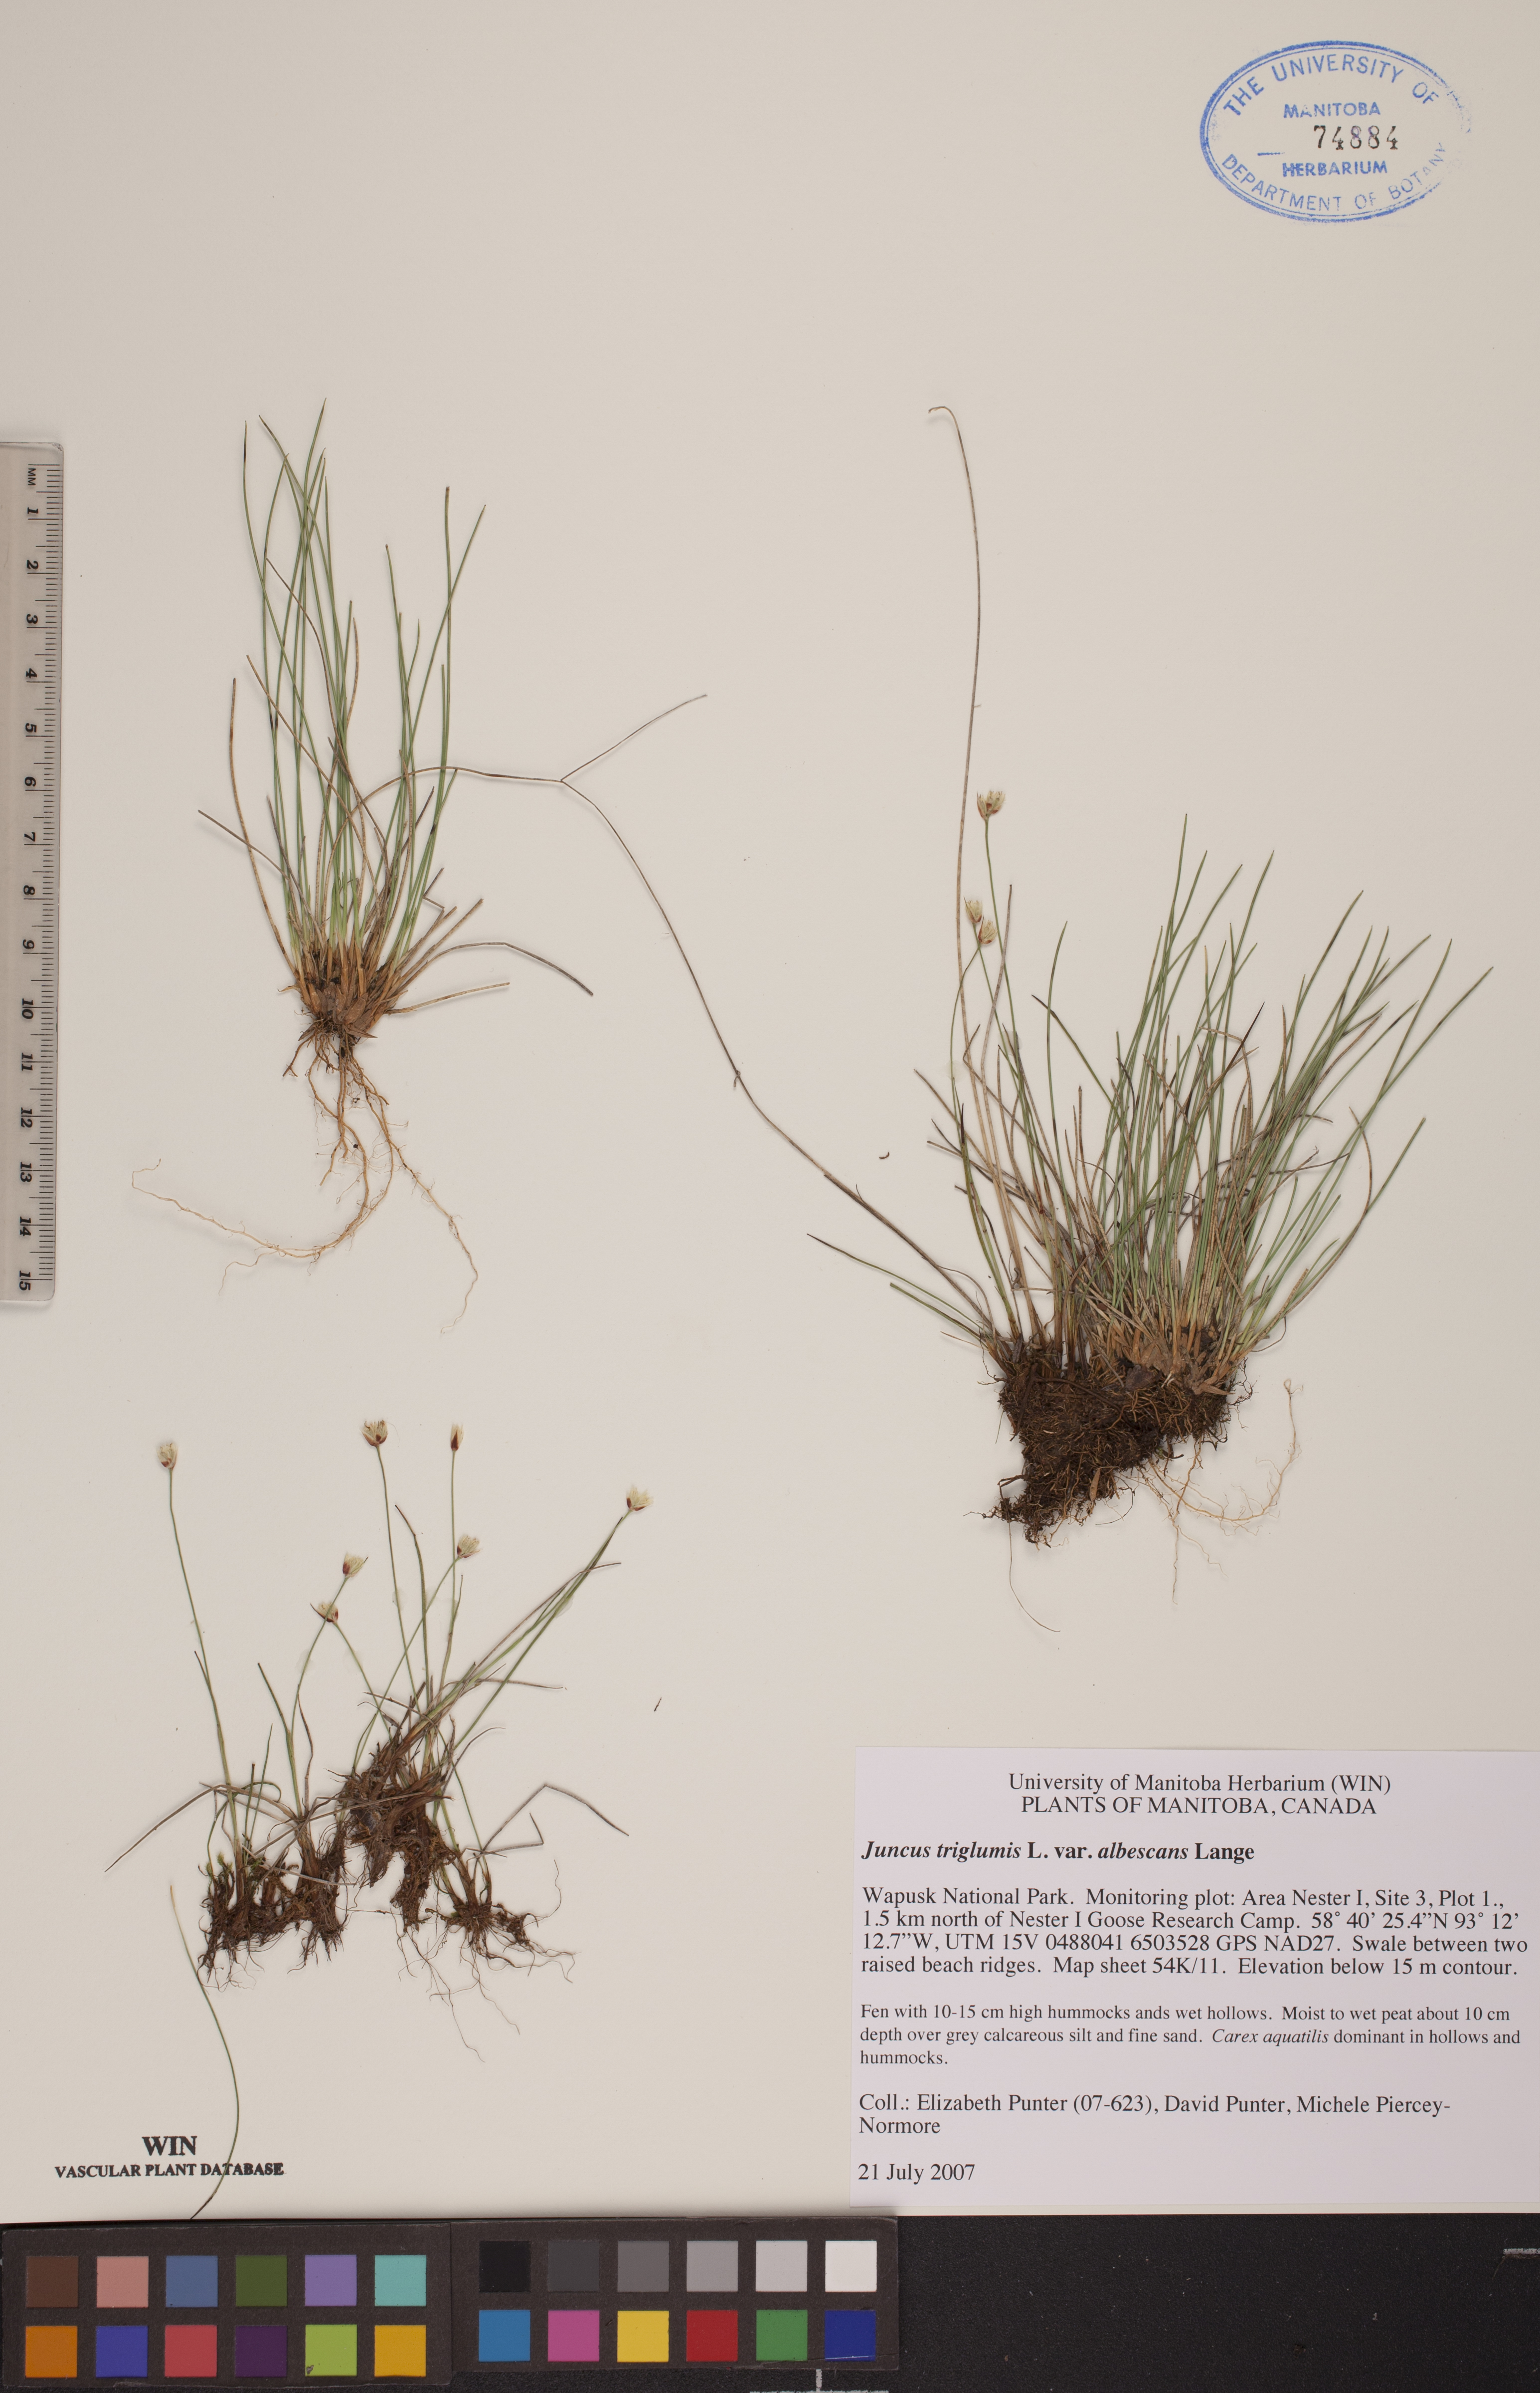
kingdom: Plantae
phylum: Tracheophyta
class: Liliopsida
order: Poales
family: Juncaceae
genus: Juncus
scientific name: Juncus albescens
